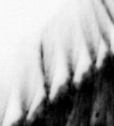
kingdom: Animalia
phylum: Annelida
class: Polychaeta
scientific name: Polychaeta
